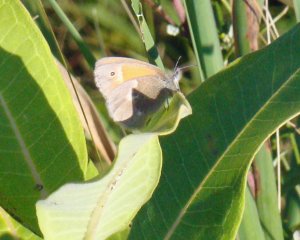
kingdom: Animalia
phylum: Arthropoda
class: Insecta
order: Lepidoptera
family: Nymphalidae
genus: Coenonympha
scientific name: Coenonympha tullia
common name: Large Heath
